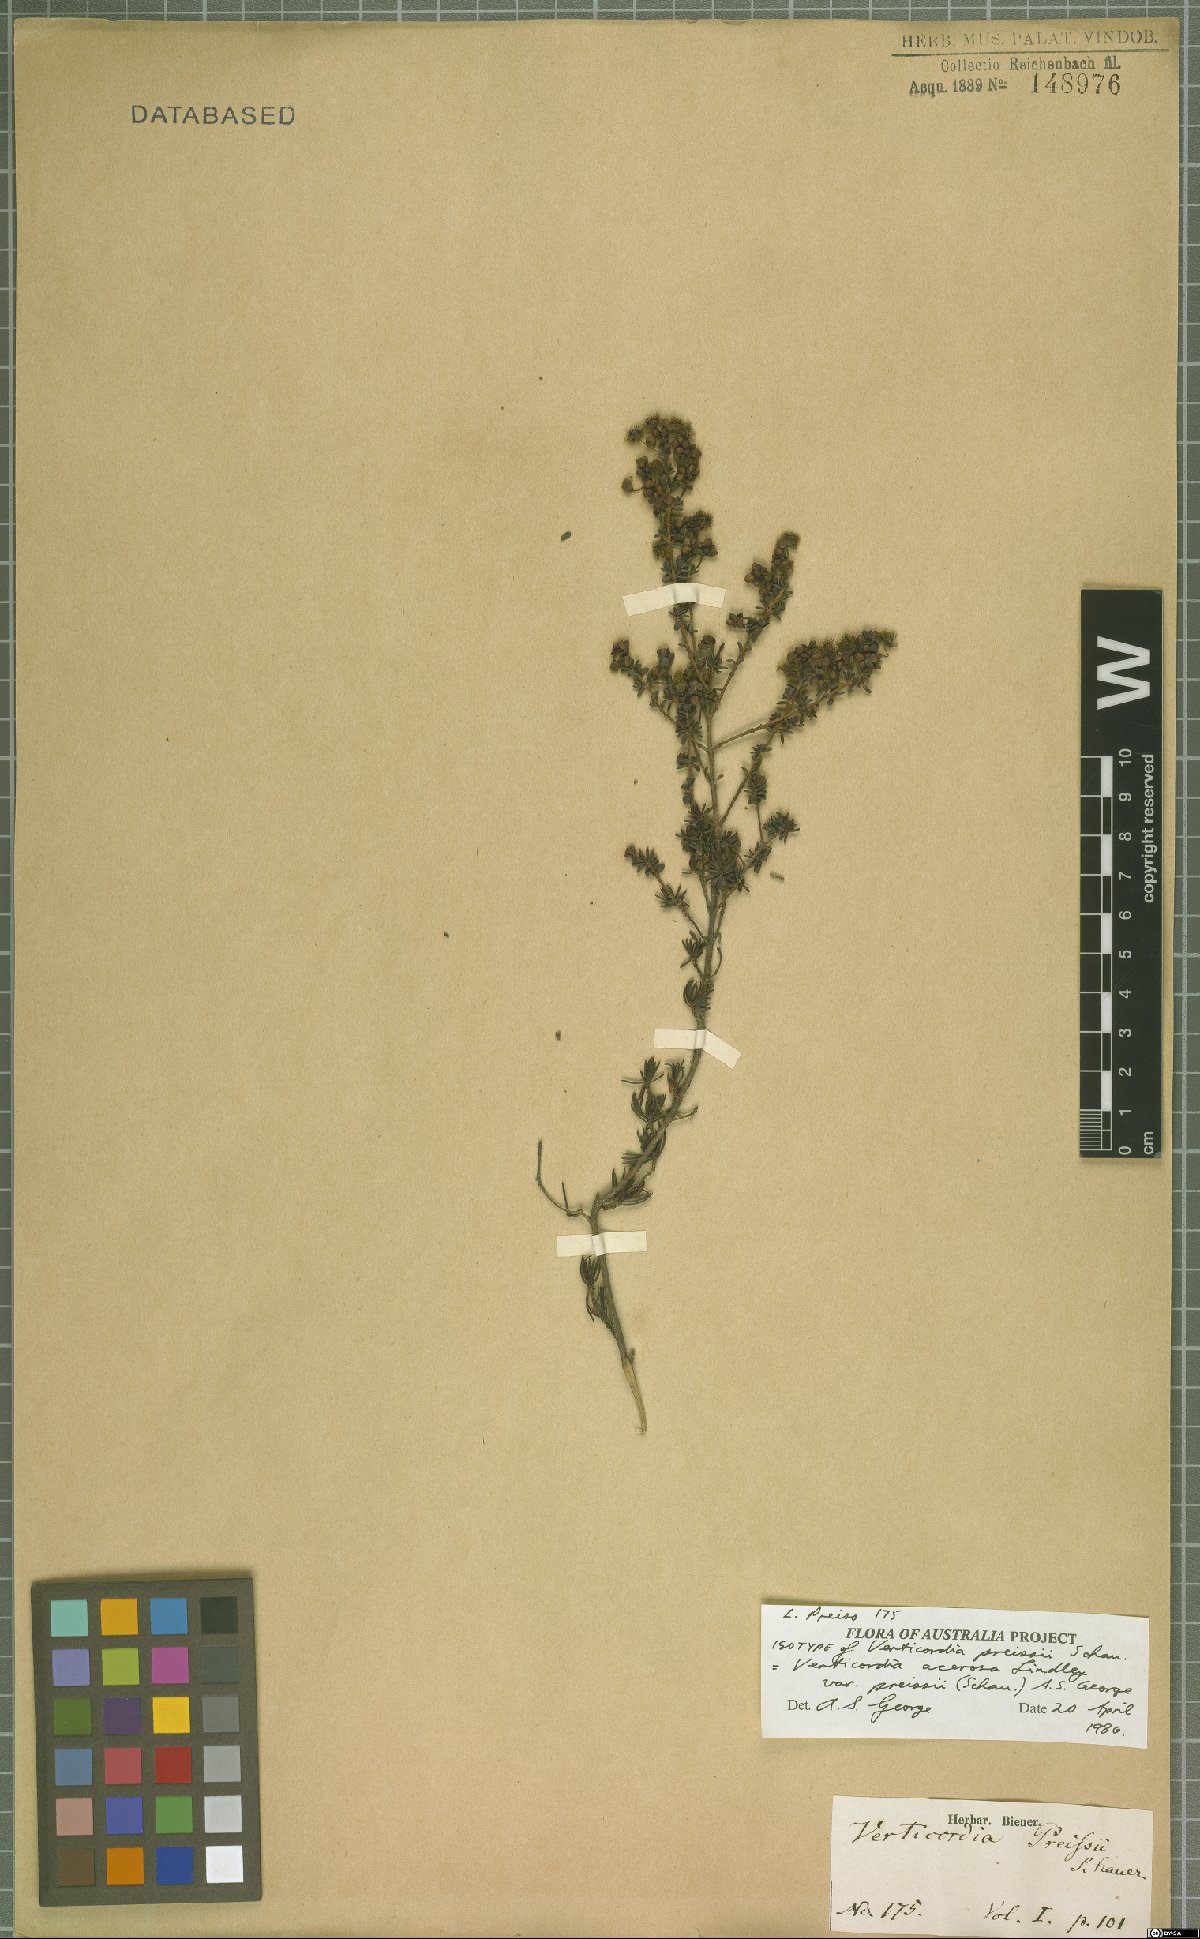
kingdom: Plantae
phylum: Tracheophyta
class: Magnoliopsida
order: Myrtales
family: Myrtaceae
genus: Verticordia
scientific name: Verticordia acerosa
